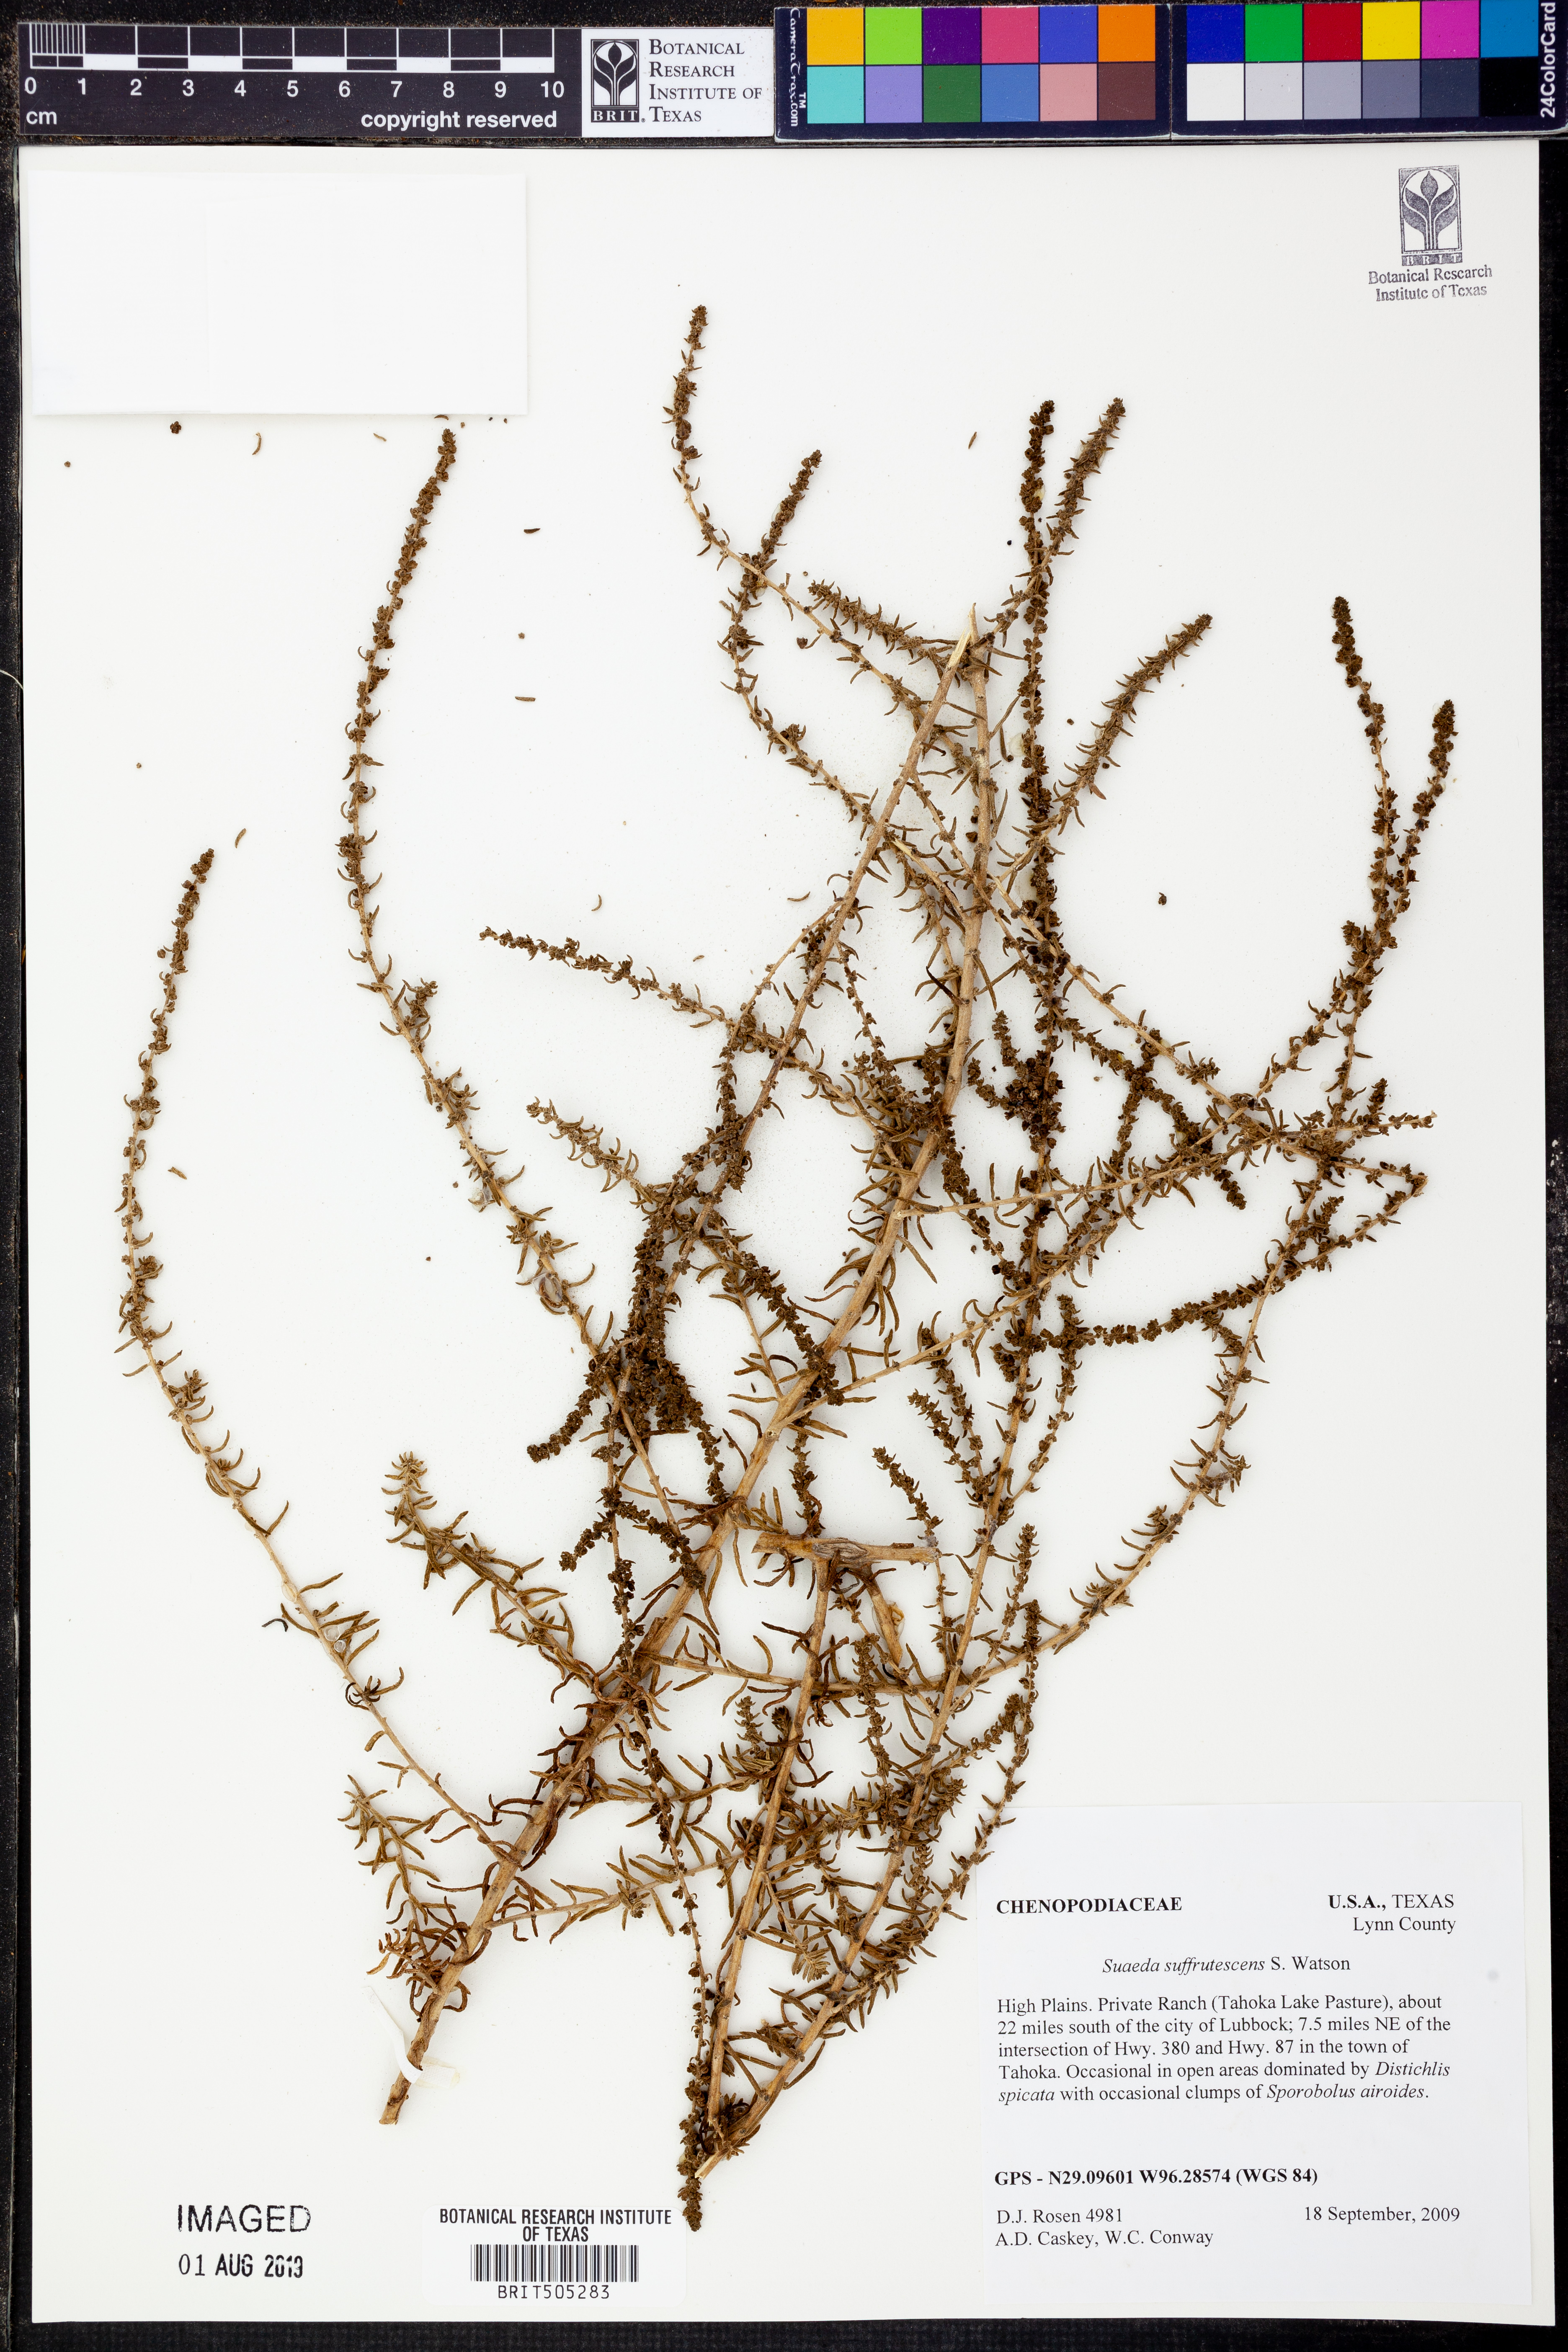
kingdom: Plantae
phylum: Tracheophyta
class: Magnoliopsida
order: Caryophyllales
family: Amaranthaceae
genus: Suaeda
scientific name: Suaeda suffrutescens
